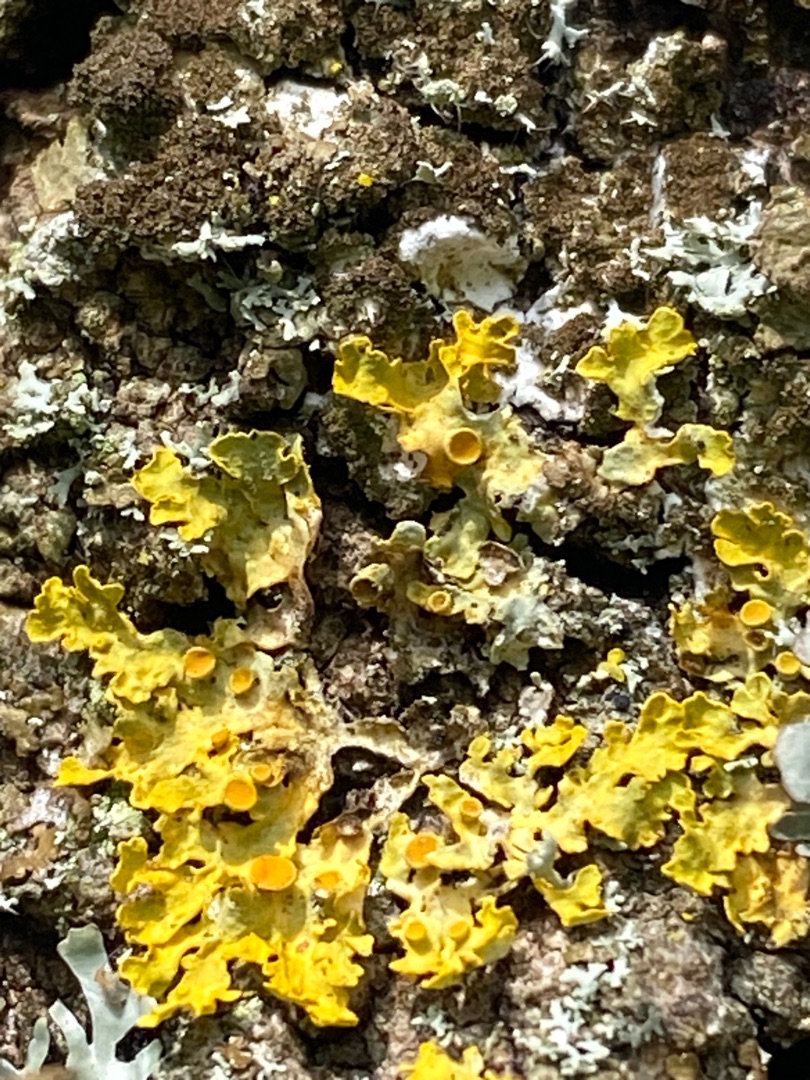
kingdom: Fungi
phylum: Ascomycota
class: Lecanoromycetes
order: Teloschistales
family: Teloschistaceae
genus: Xanthoria
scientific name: Xanthoria parietina
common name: Almindelig væggelav
